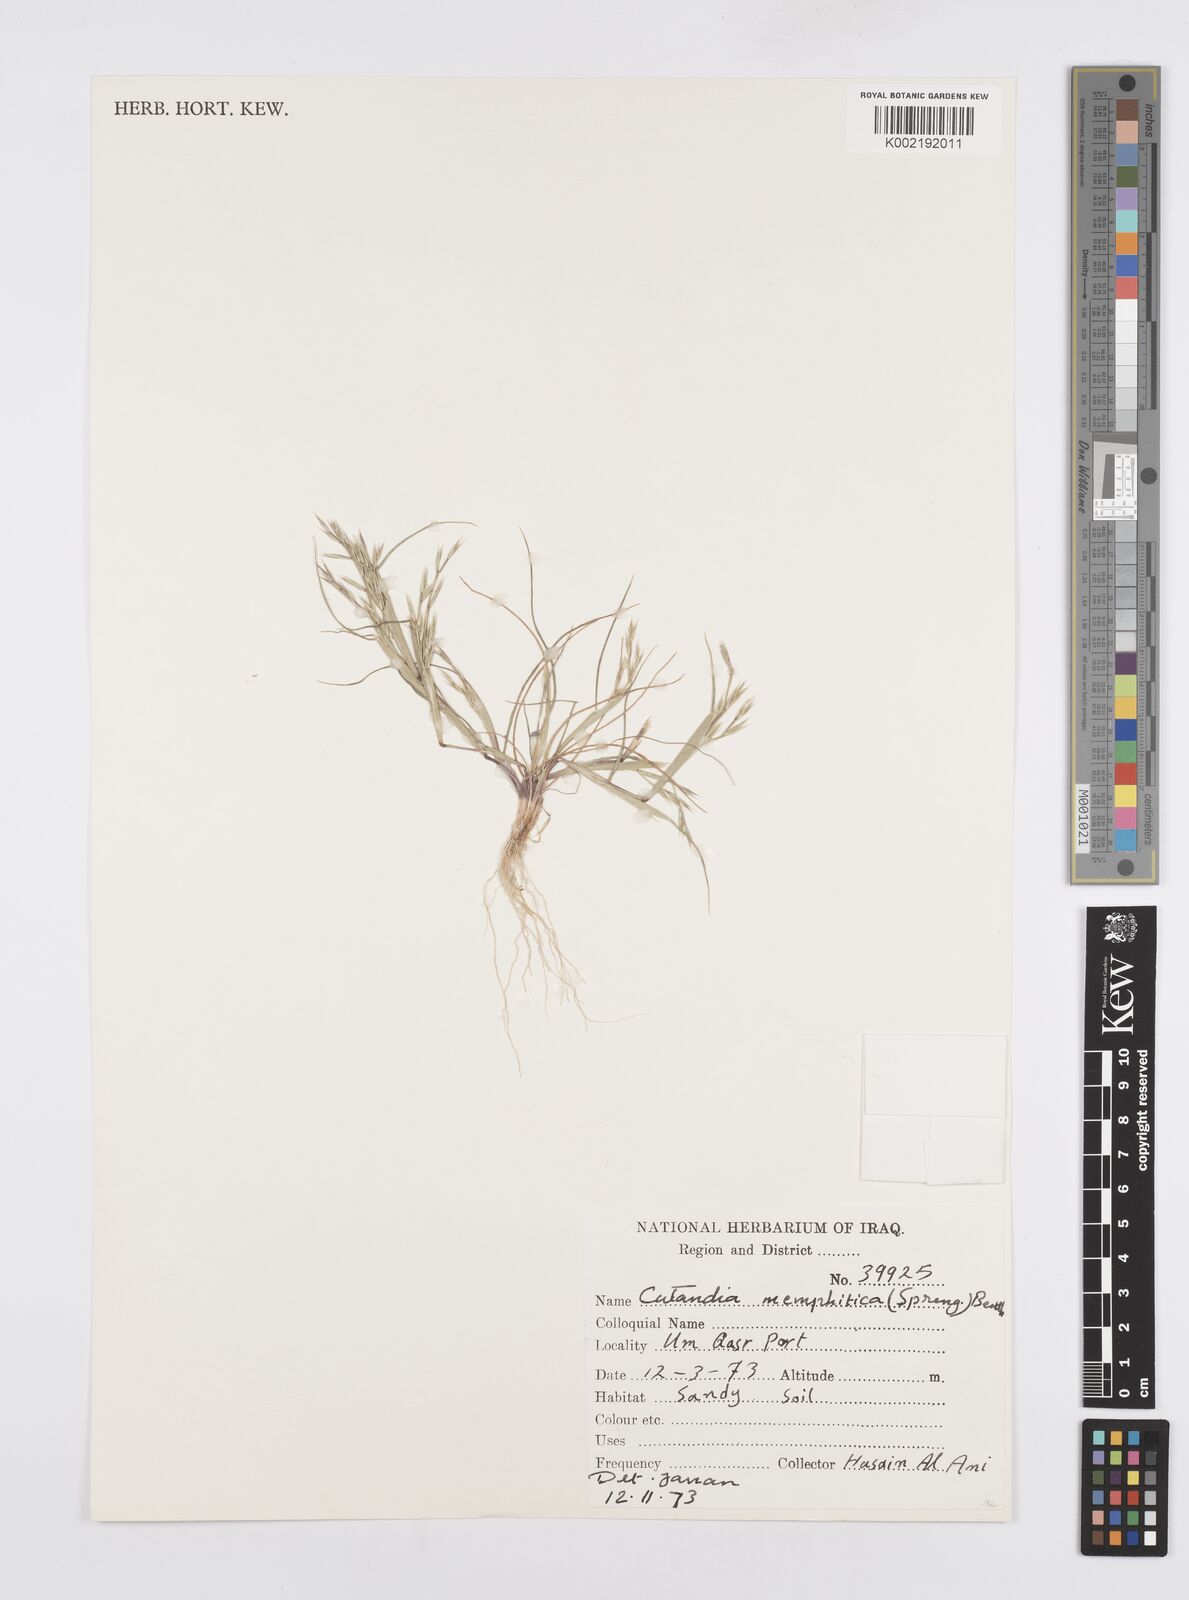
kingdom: Plantae
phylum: Tracheophyta
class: Liliopsida
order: Poales
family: Poaceae
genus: Cutandia
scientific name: Cutandia memphitica
